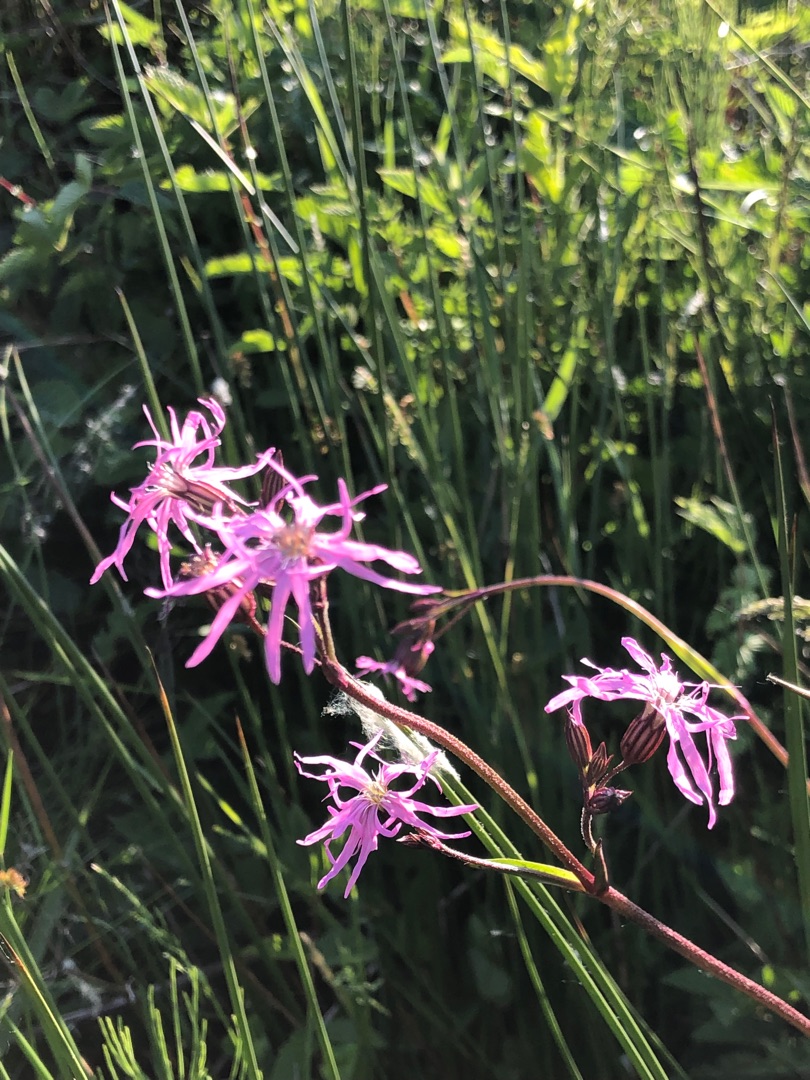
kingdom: Plantae
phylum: Tracheophyta
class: Magnoliopsida
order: Caryophyllales
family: Caryophyllaceae
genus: Silene
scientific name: Silene flos-cuculi
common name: Trævlekrone
